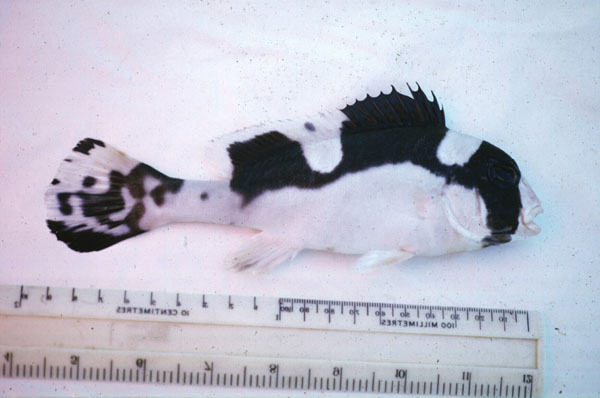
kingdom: Animalia
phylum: Chordata
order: Perciformes
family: Haemulidae
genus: Plectorhinchus
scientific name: Plectorhinchus picus
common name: Spotted sweetlips
